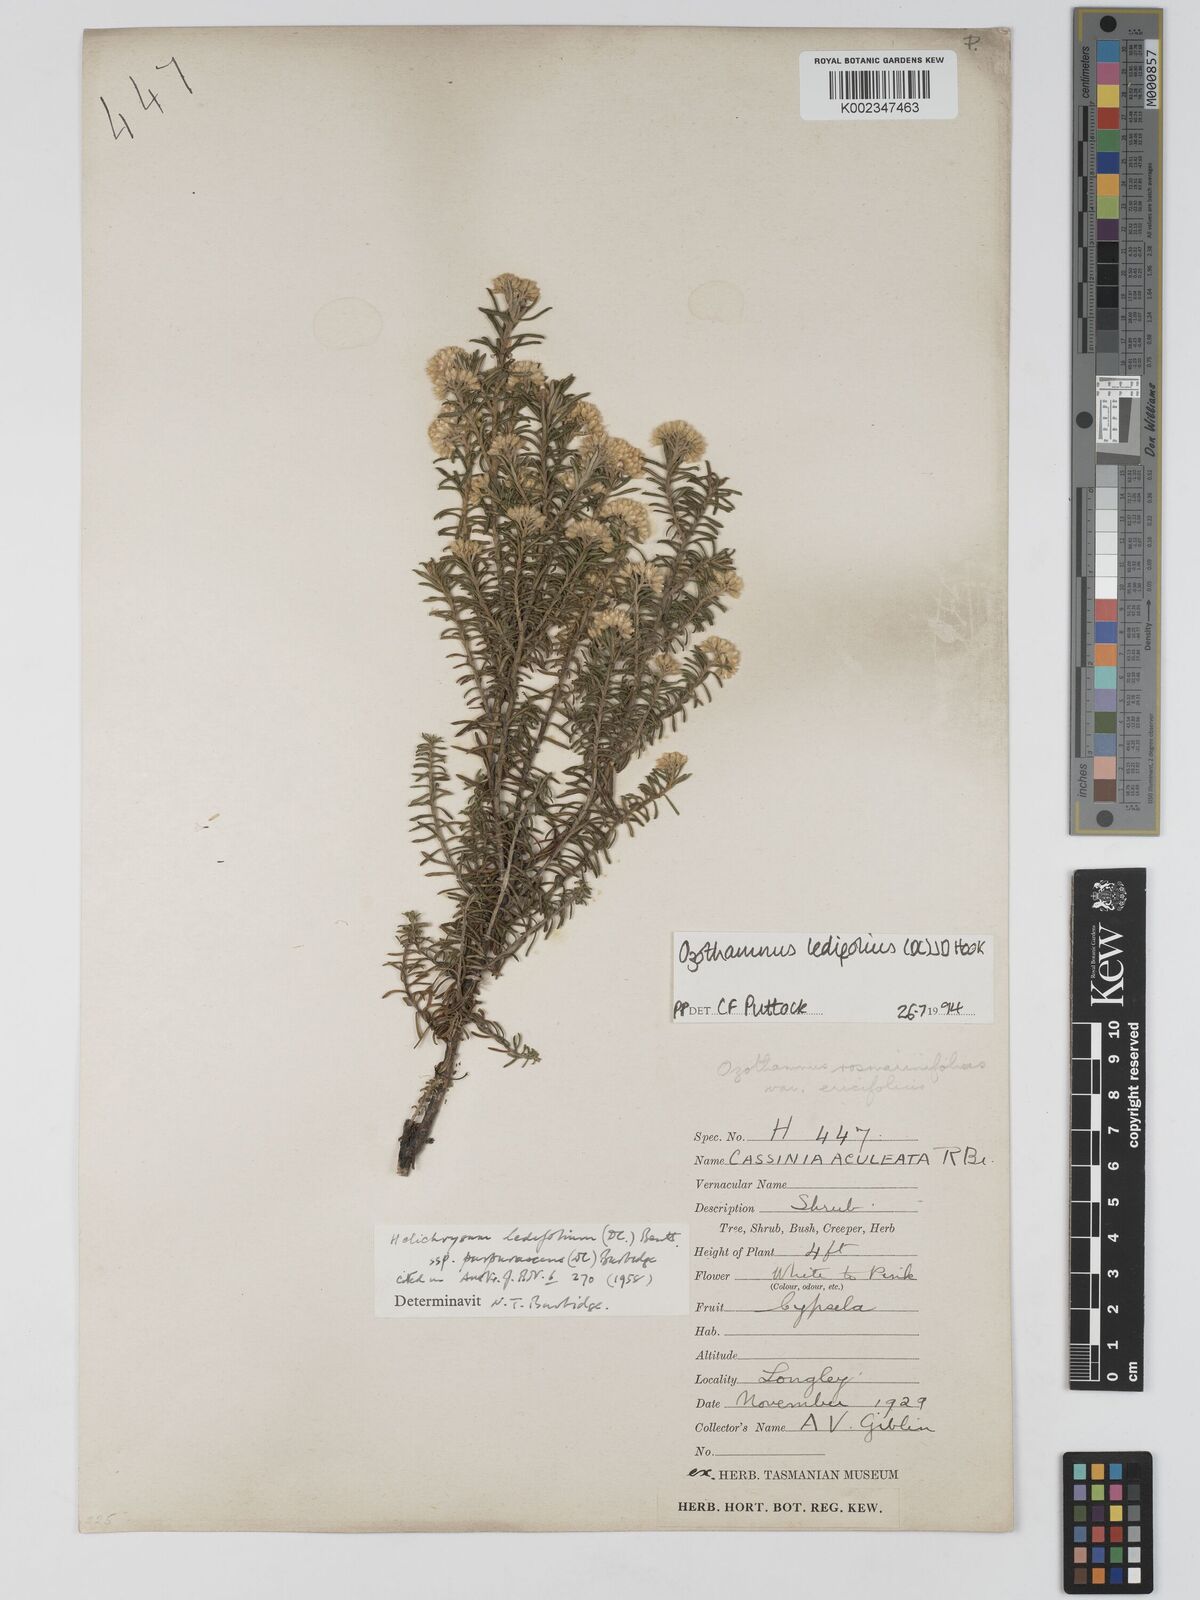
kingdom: Plantae
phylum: Tracheophyta
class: Magnoliopsida
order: Asterales
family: Asteraceae
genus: Ozothamnus
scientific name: Ozothamnus ledifolius
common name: Kerosene-weed
